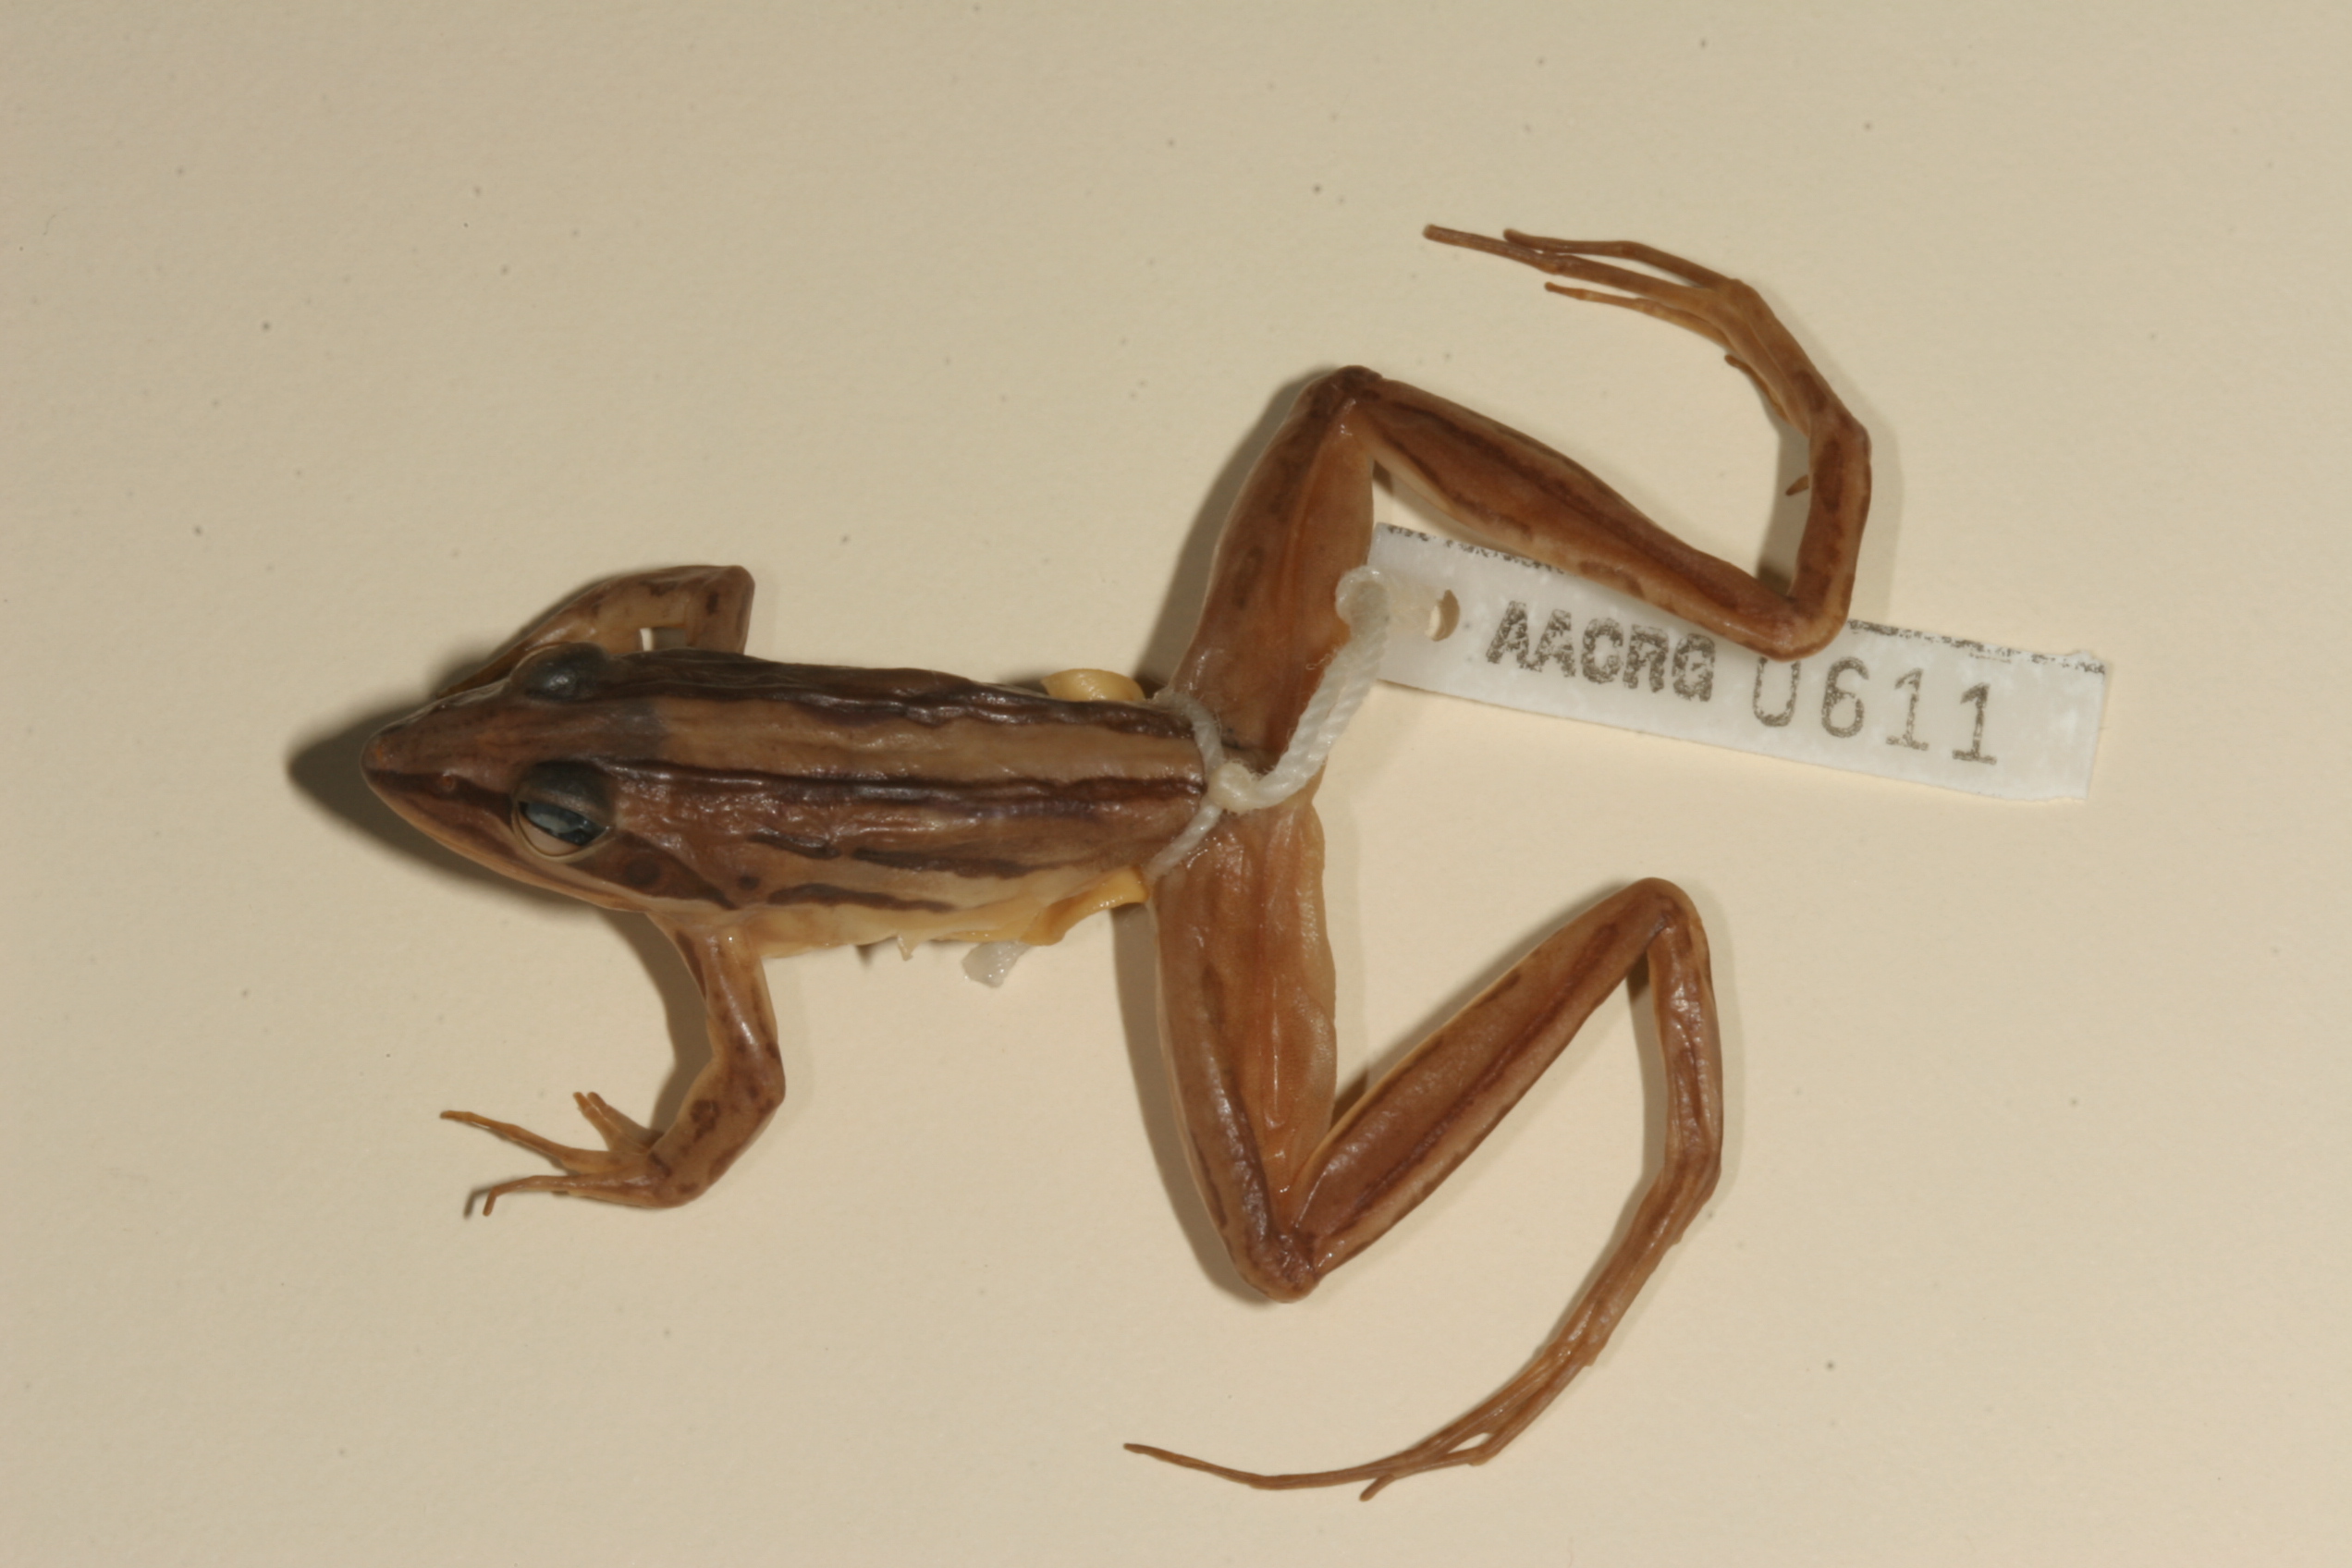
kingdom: Animalia
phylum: Chordata
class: Amphibia
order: Anura
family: Pyxicephalidae
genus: Strongylopus
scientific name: Strongylopus fasciatus
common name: Striped stream frog
